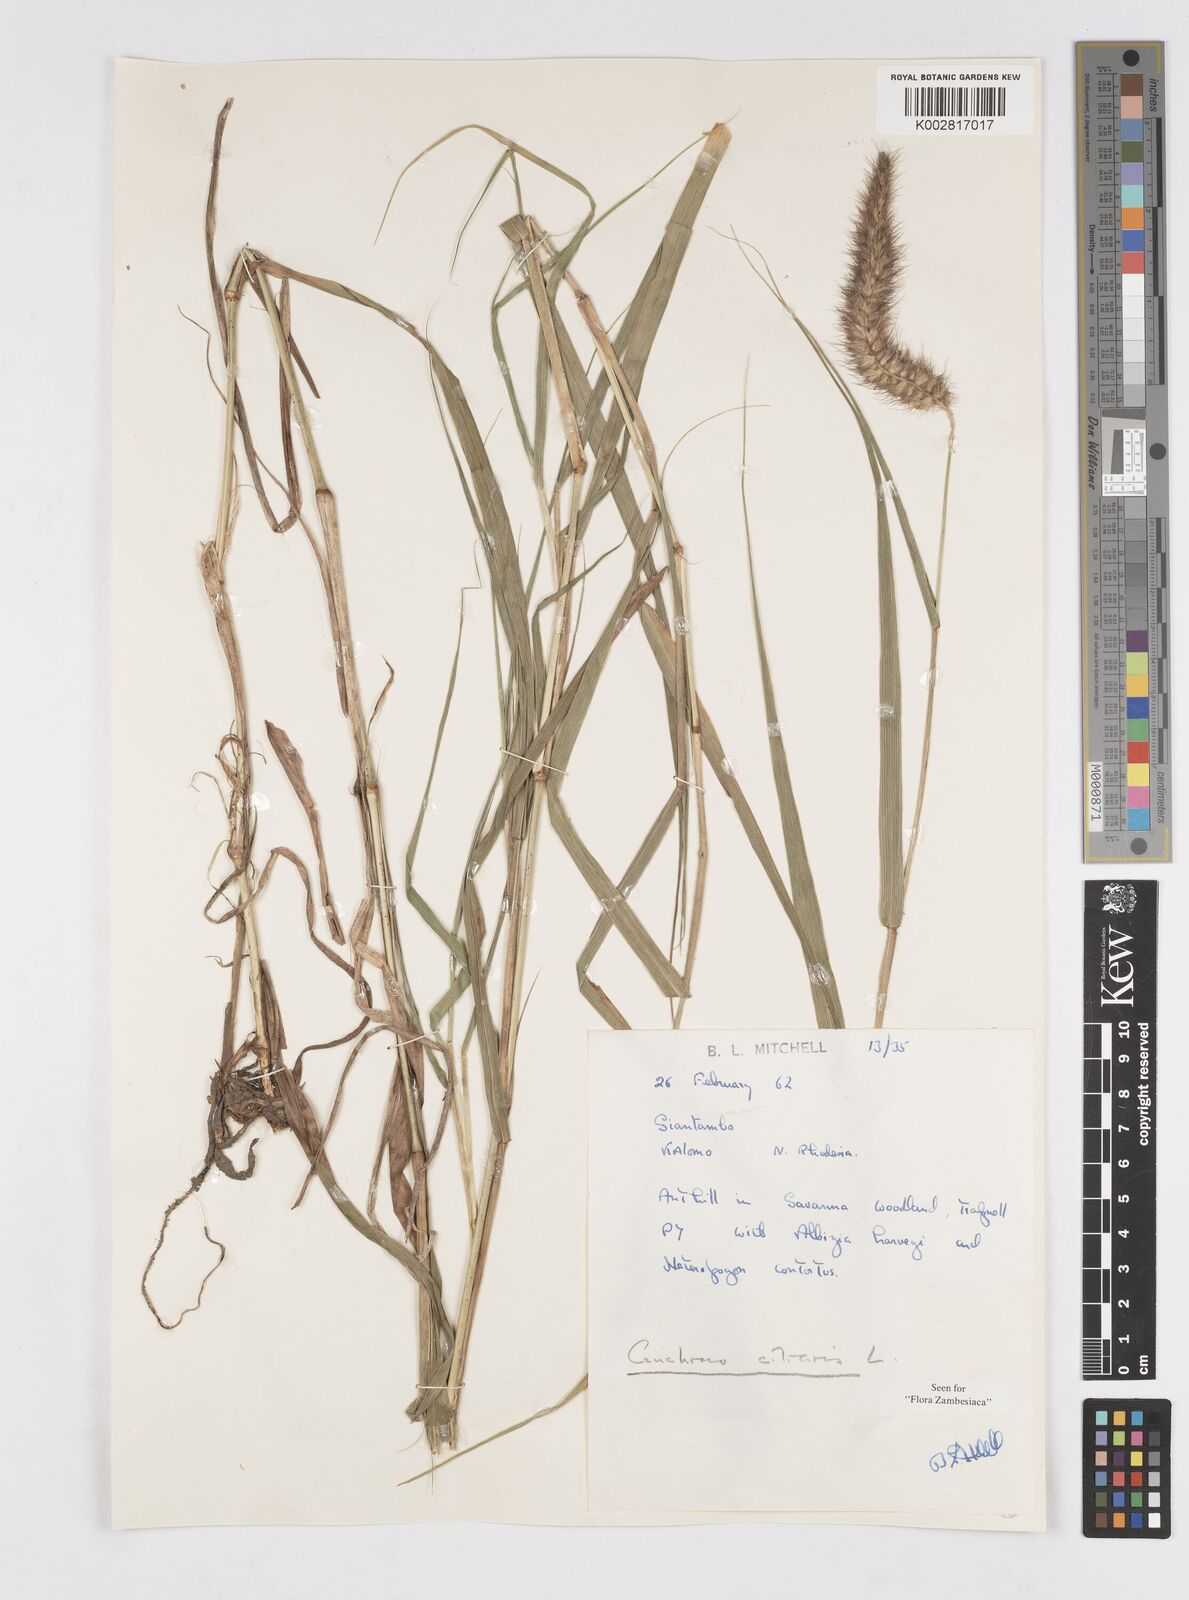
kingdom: Plantae
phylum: Tracheophyta
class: Liliopsida
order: Poales
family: Poaceae
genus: Cenchrus
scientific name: Cenchrus ciliaris
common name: Buffelgrass
